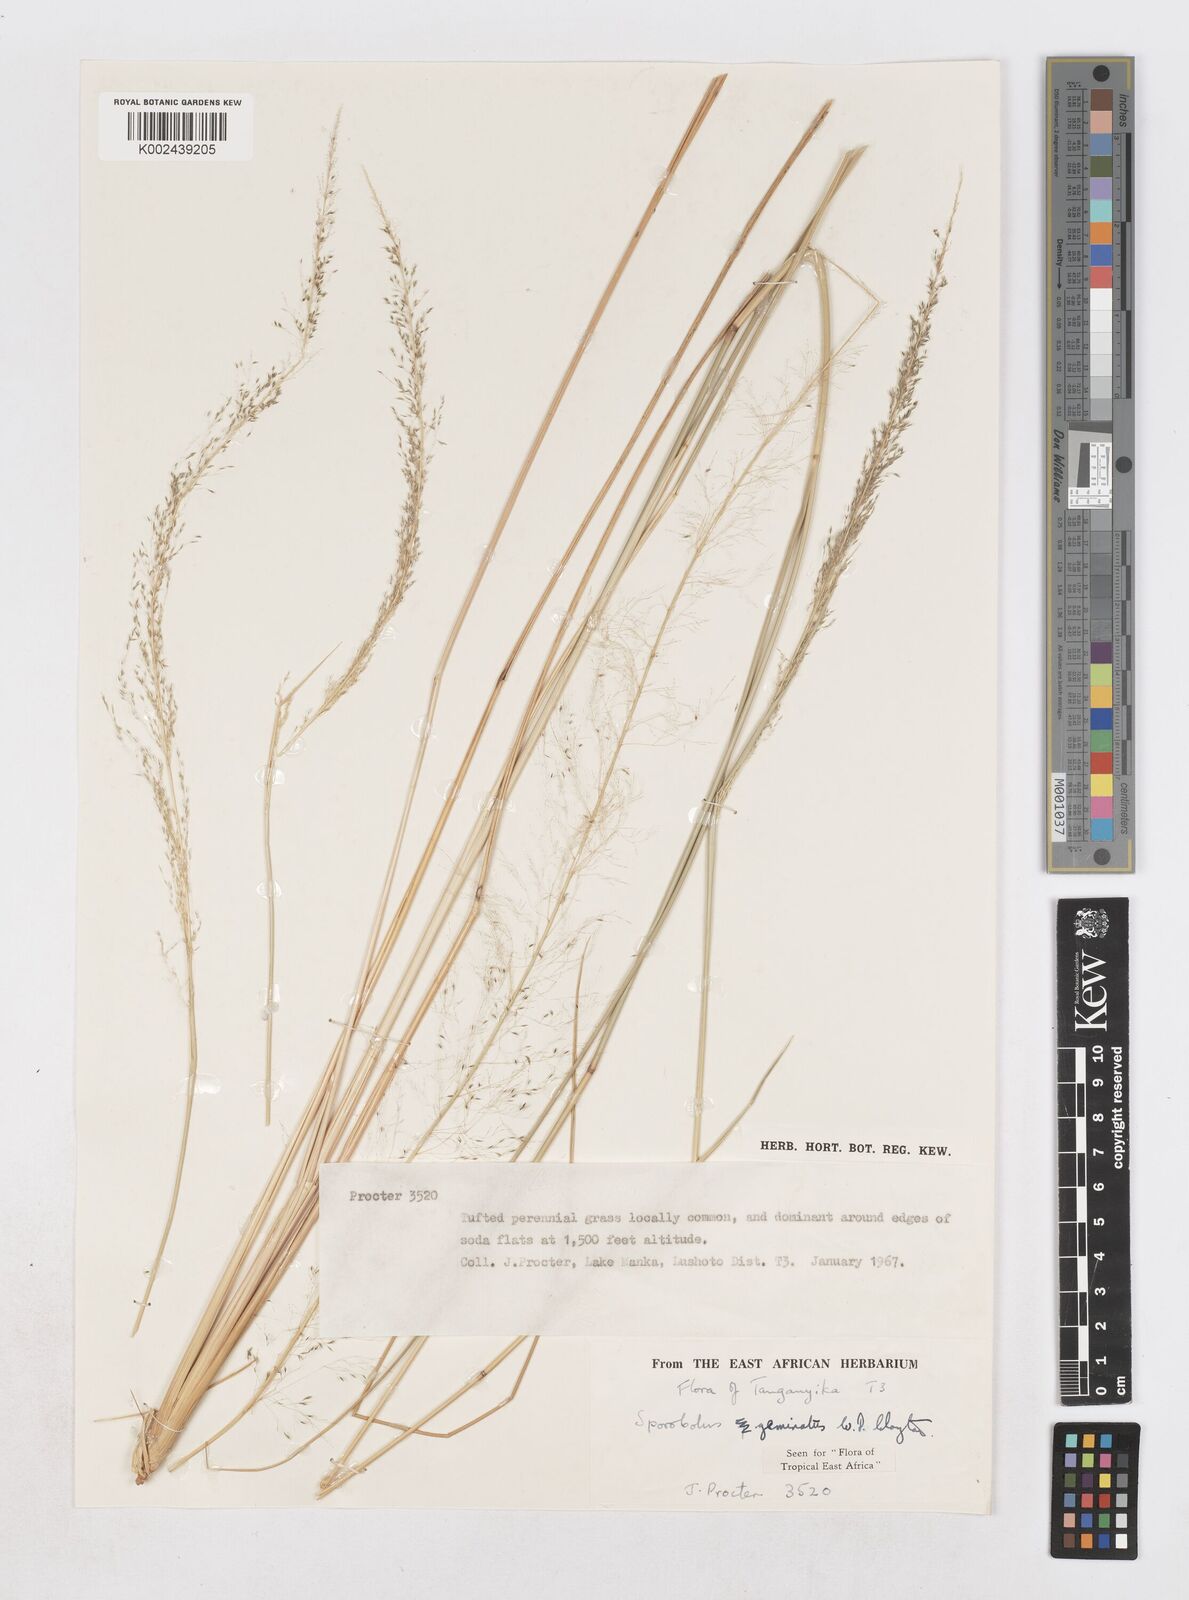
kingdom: Plantae
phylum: Tracheophyta
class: Liliopsida
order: Poales
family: Poaceae
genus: Sporobolus
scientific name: Sporobolus geminatus
